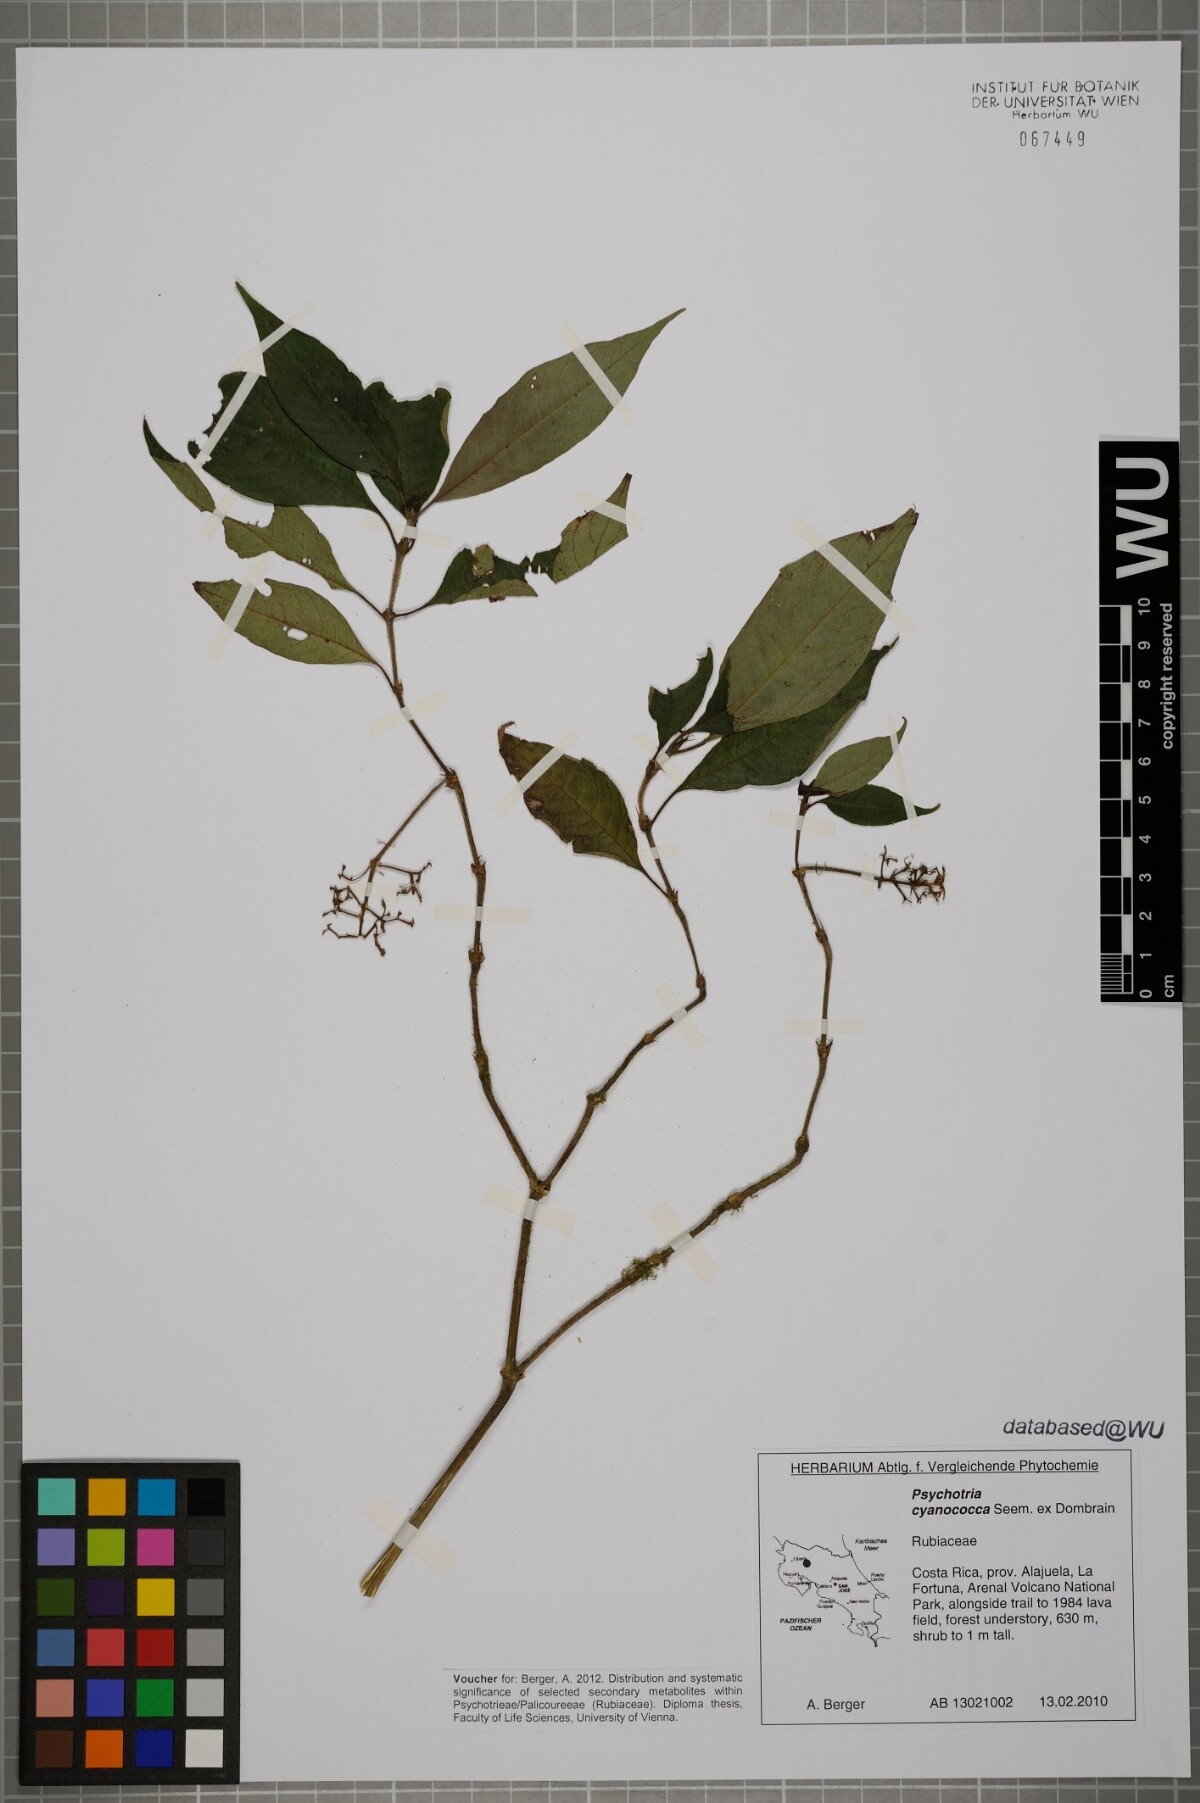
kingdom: Plantae
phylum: Tracheophyta
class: Magnoliopsida
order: Gentianales
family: Rubiaceae
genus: Palicourea
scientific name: Palicourea cyanococca
